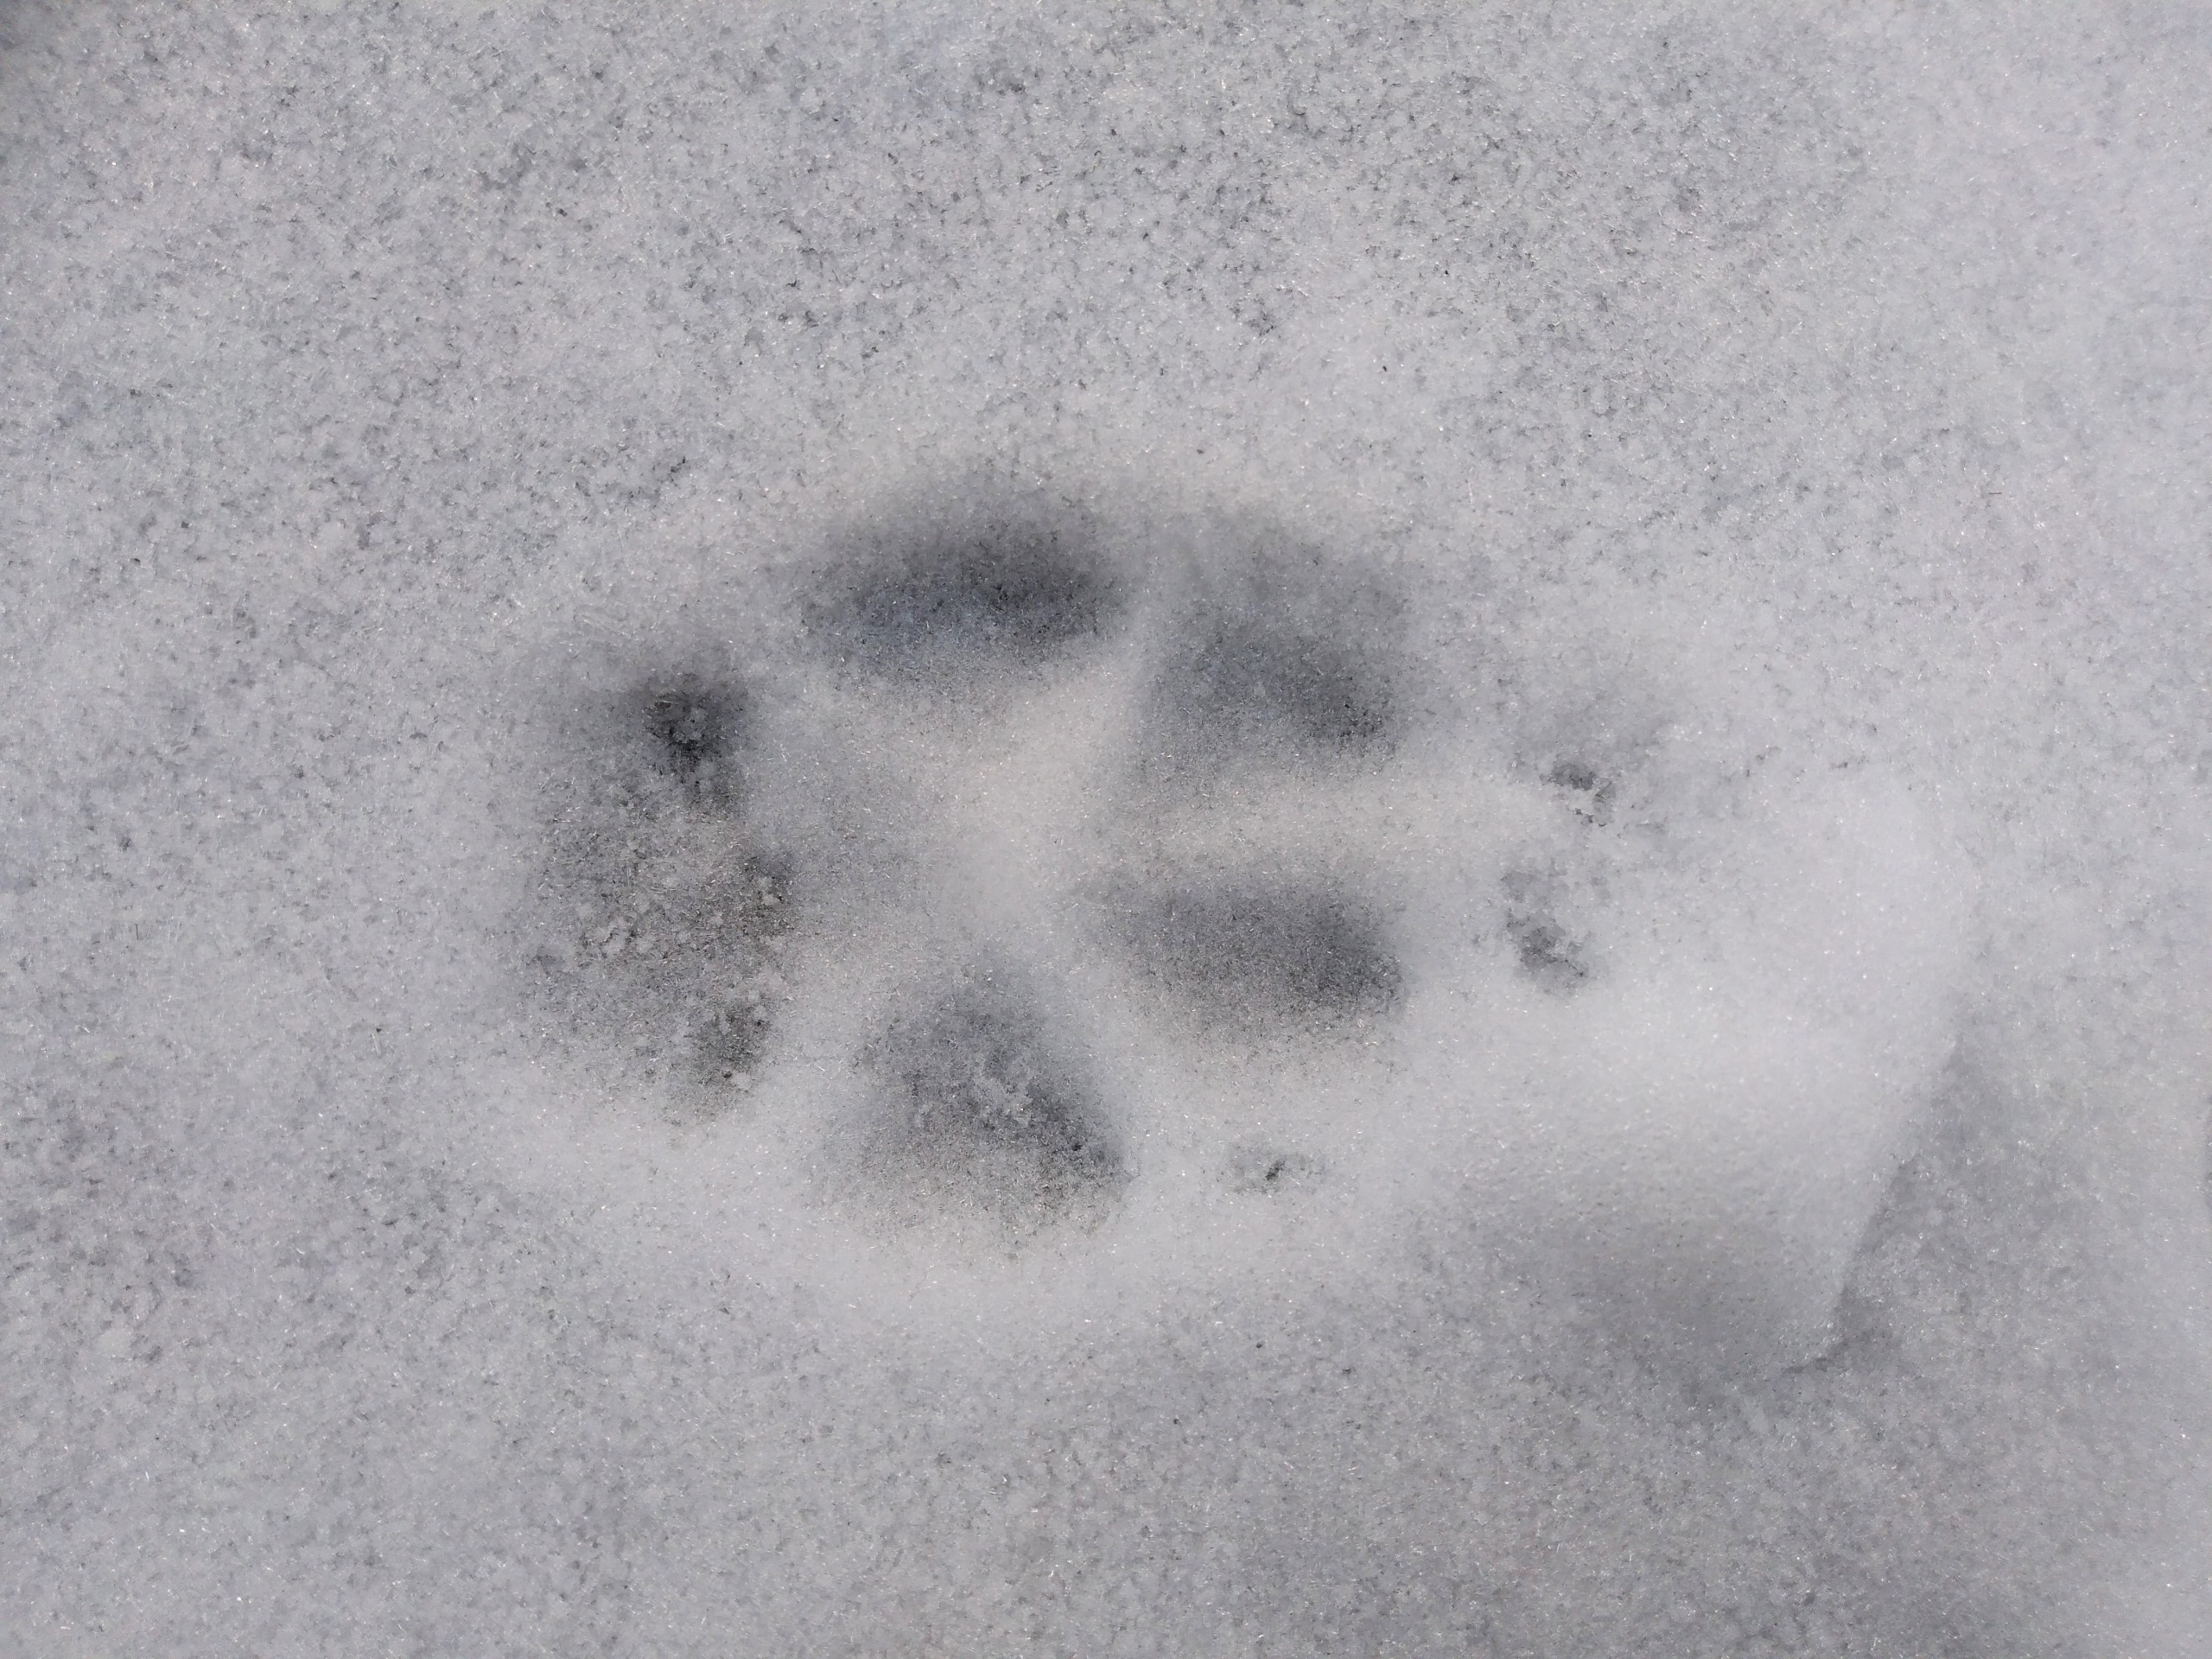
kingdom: Animalia
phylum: Chordata
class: Mammalia
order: Carnivora
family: Canidae
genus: Vulpes
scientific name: Vulpes vulpes
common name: Ræv
